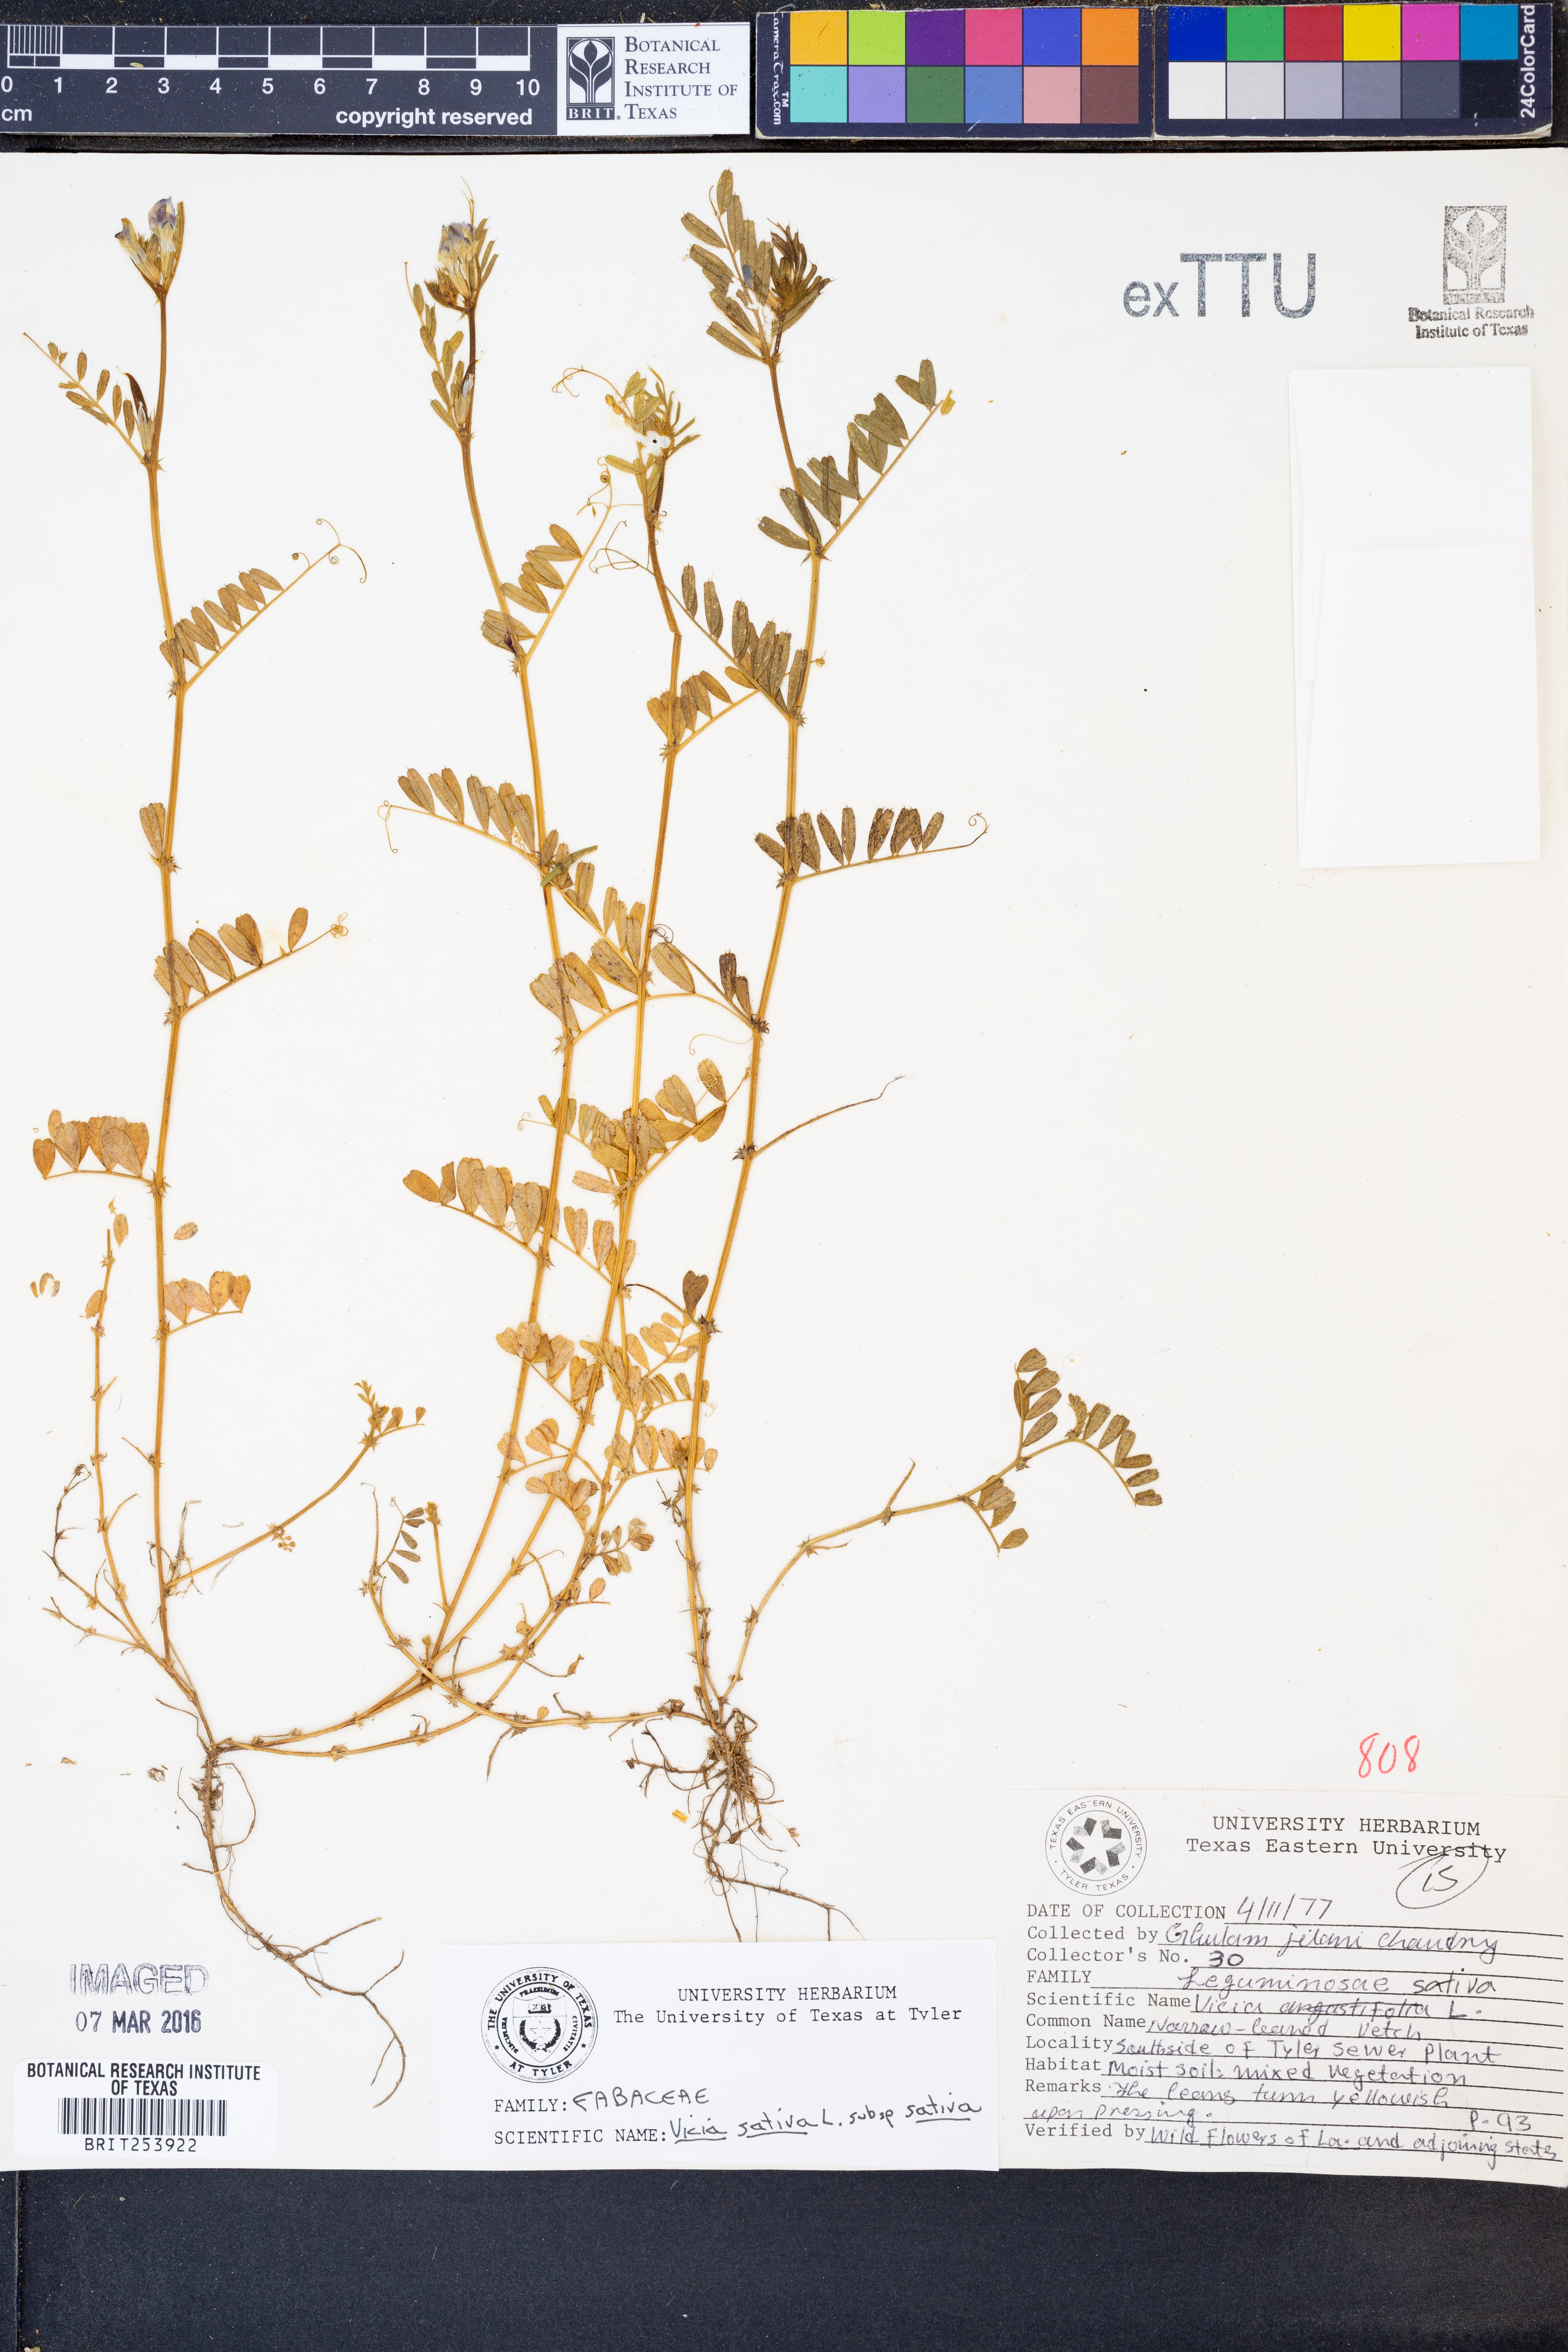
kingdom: Plantae
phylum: Tracheophyta
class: Magnoliopsida
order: Fabales
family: Fabaceae
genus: Vicia
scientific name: Vicia sativa
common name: Garden vetch
